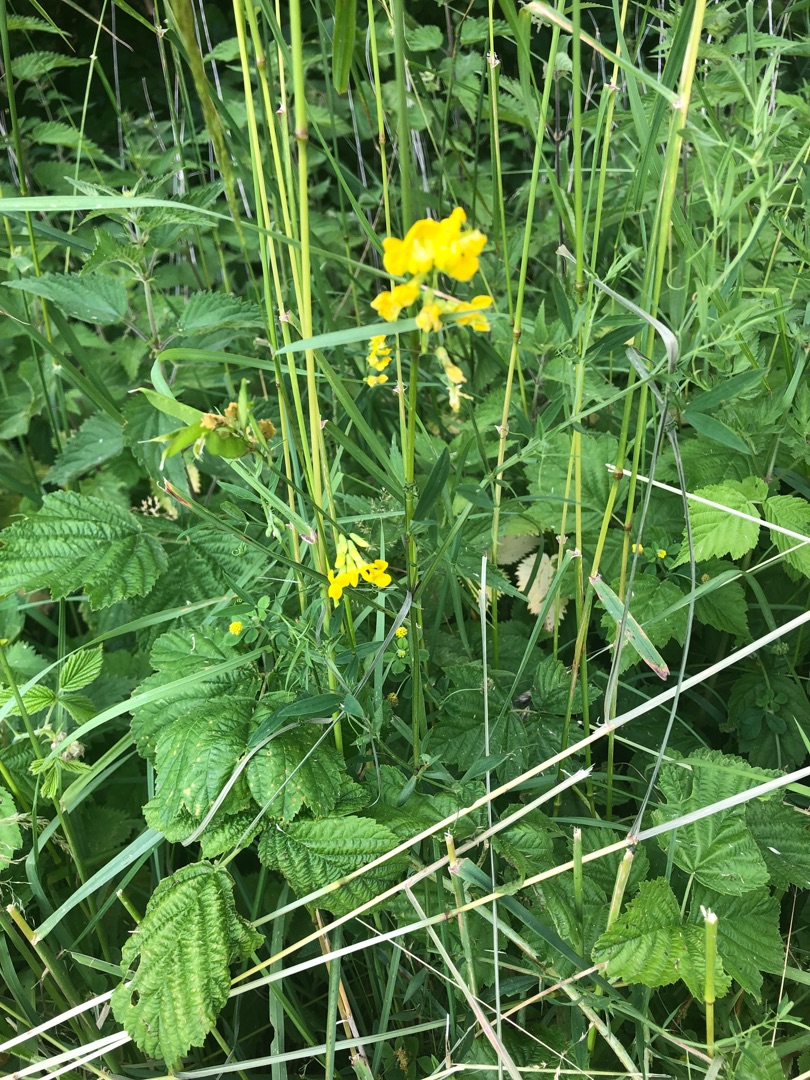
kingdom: Plantae
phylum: Tracheophyta
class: Magnoliopsida
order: Fabales
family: Fabaceae
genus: Lathyrus
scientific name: Lathyrus pratensis
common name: Gul fladbælg
